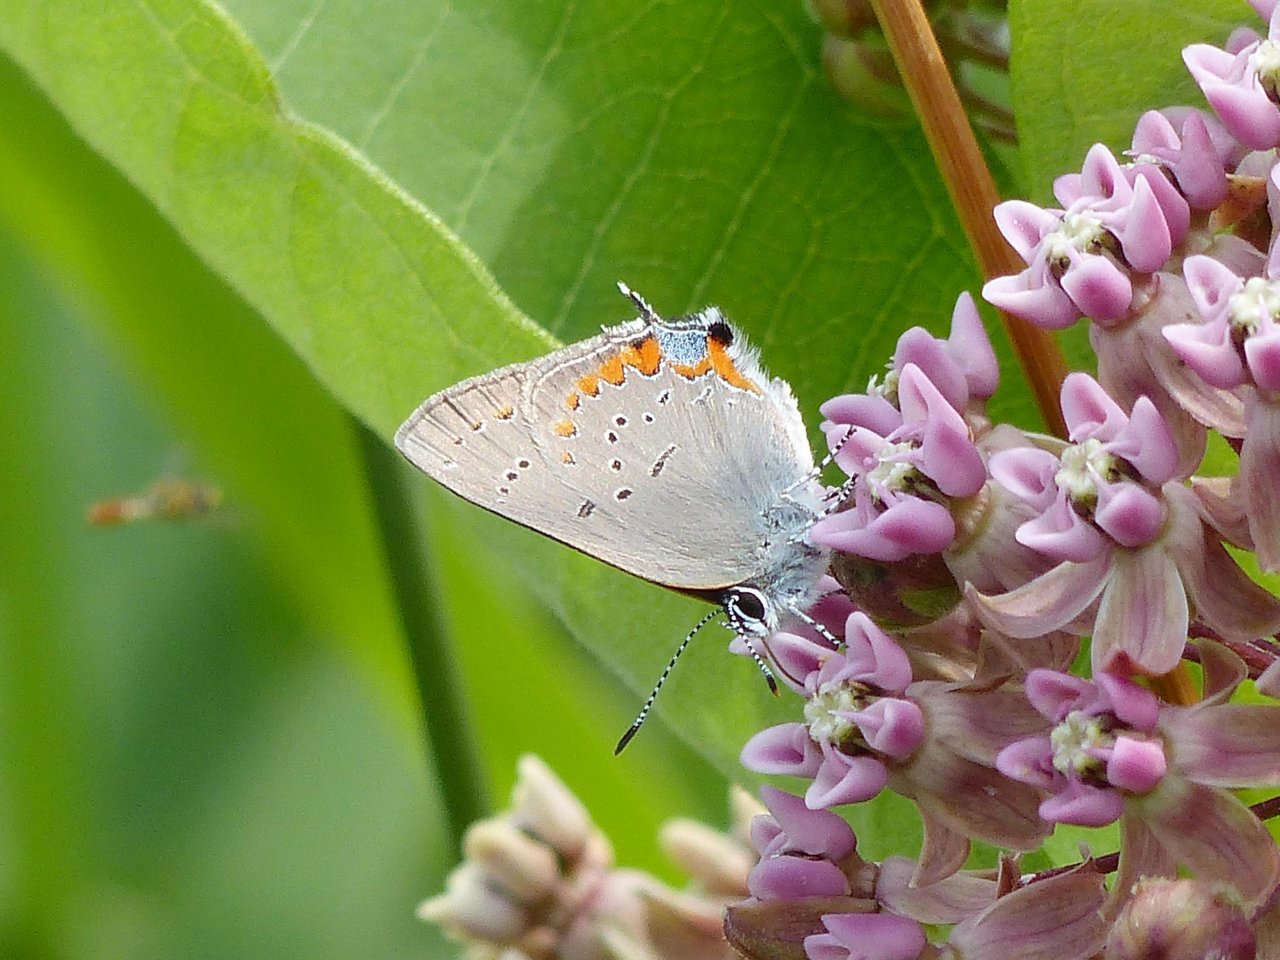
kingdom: Animalia
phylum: Arthropoda
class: Insecta
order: Lepidoptera
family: Lycaenidae
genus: Strymon
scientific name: Strymon acadica
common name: Acadian Hairstreak
